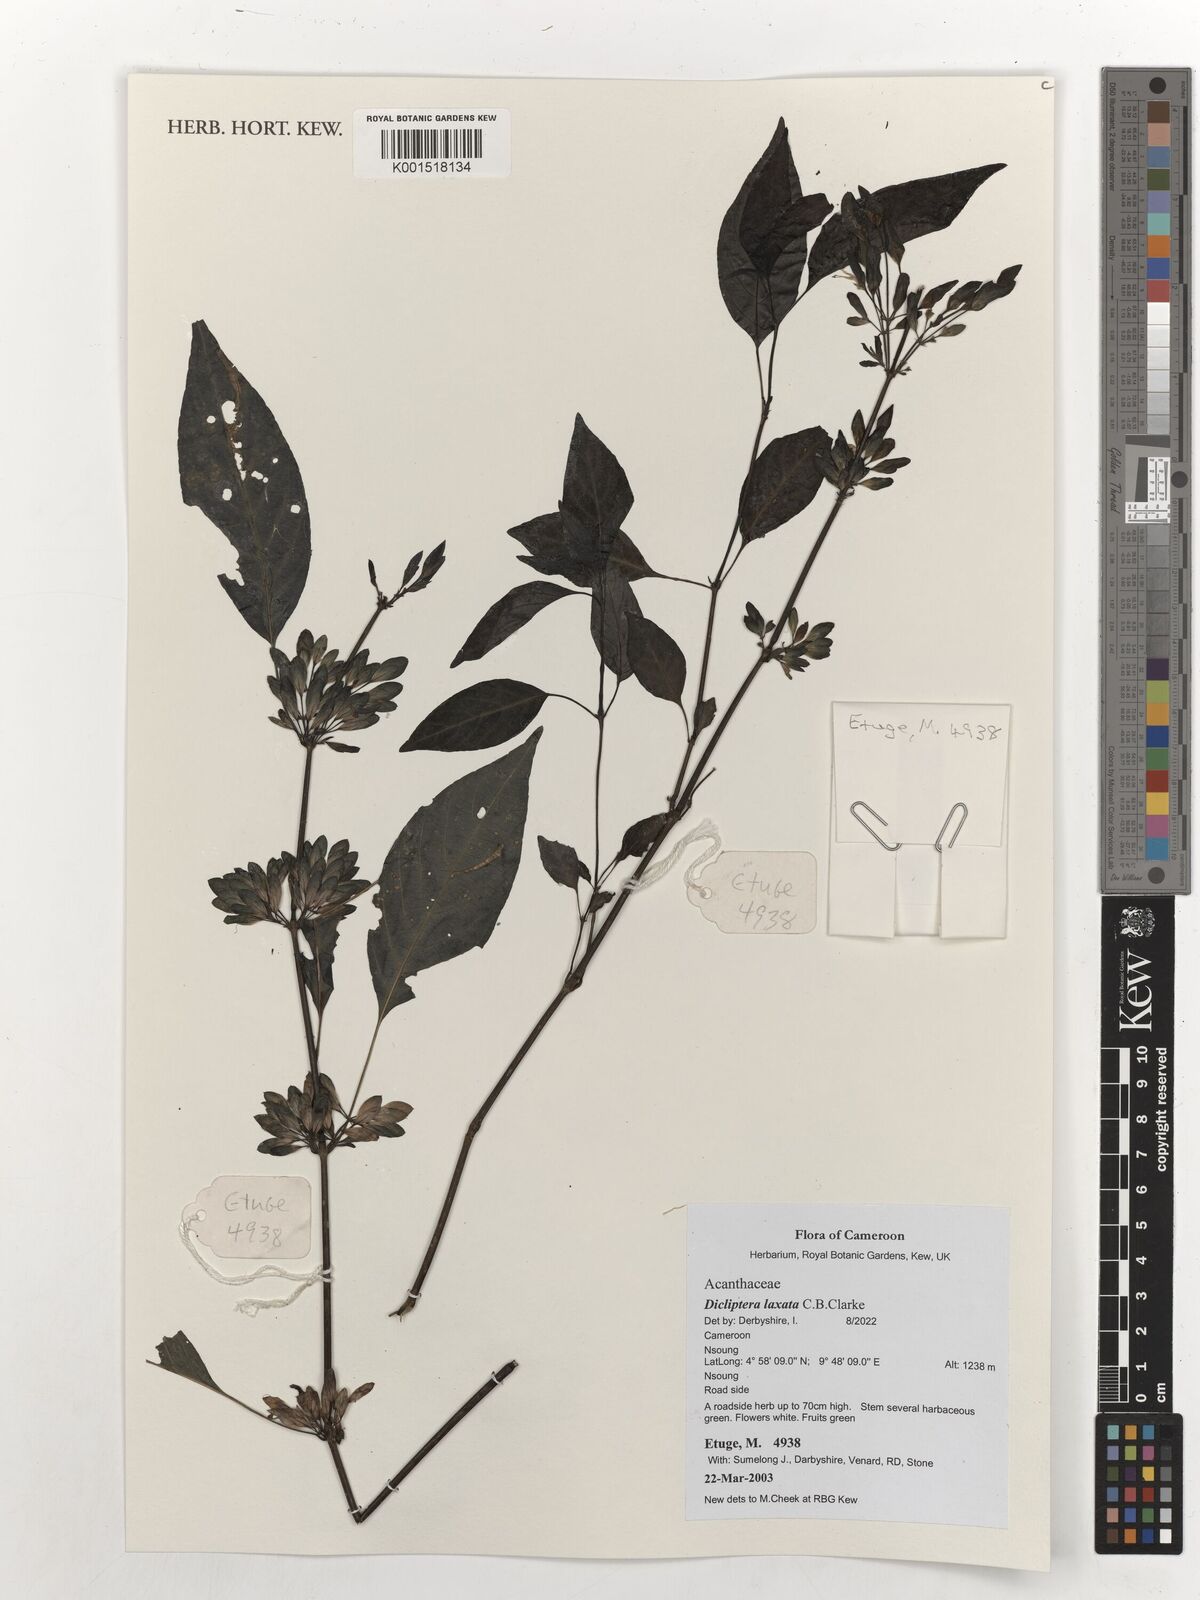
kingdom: Plantae
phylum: Tracheophyta
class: Magnoliopsida
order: Lamiales
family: Acanthaceae
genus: Dicliptera
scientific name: Dicliptera laxata
